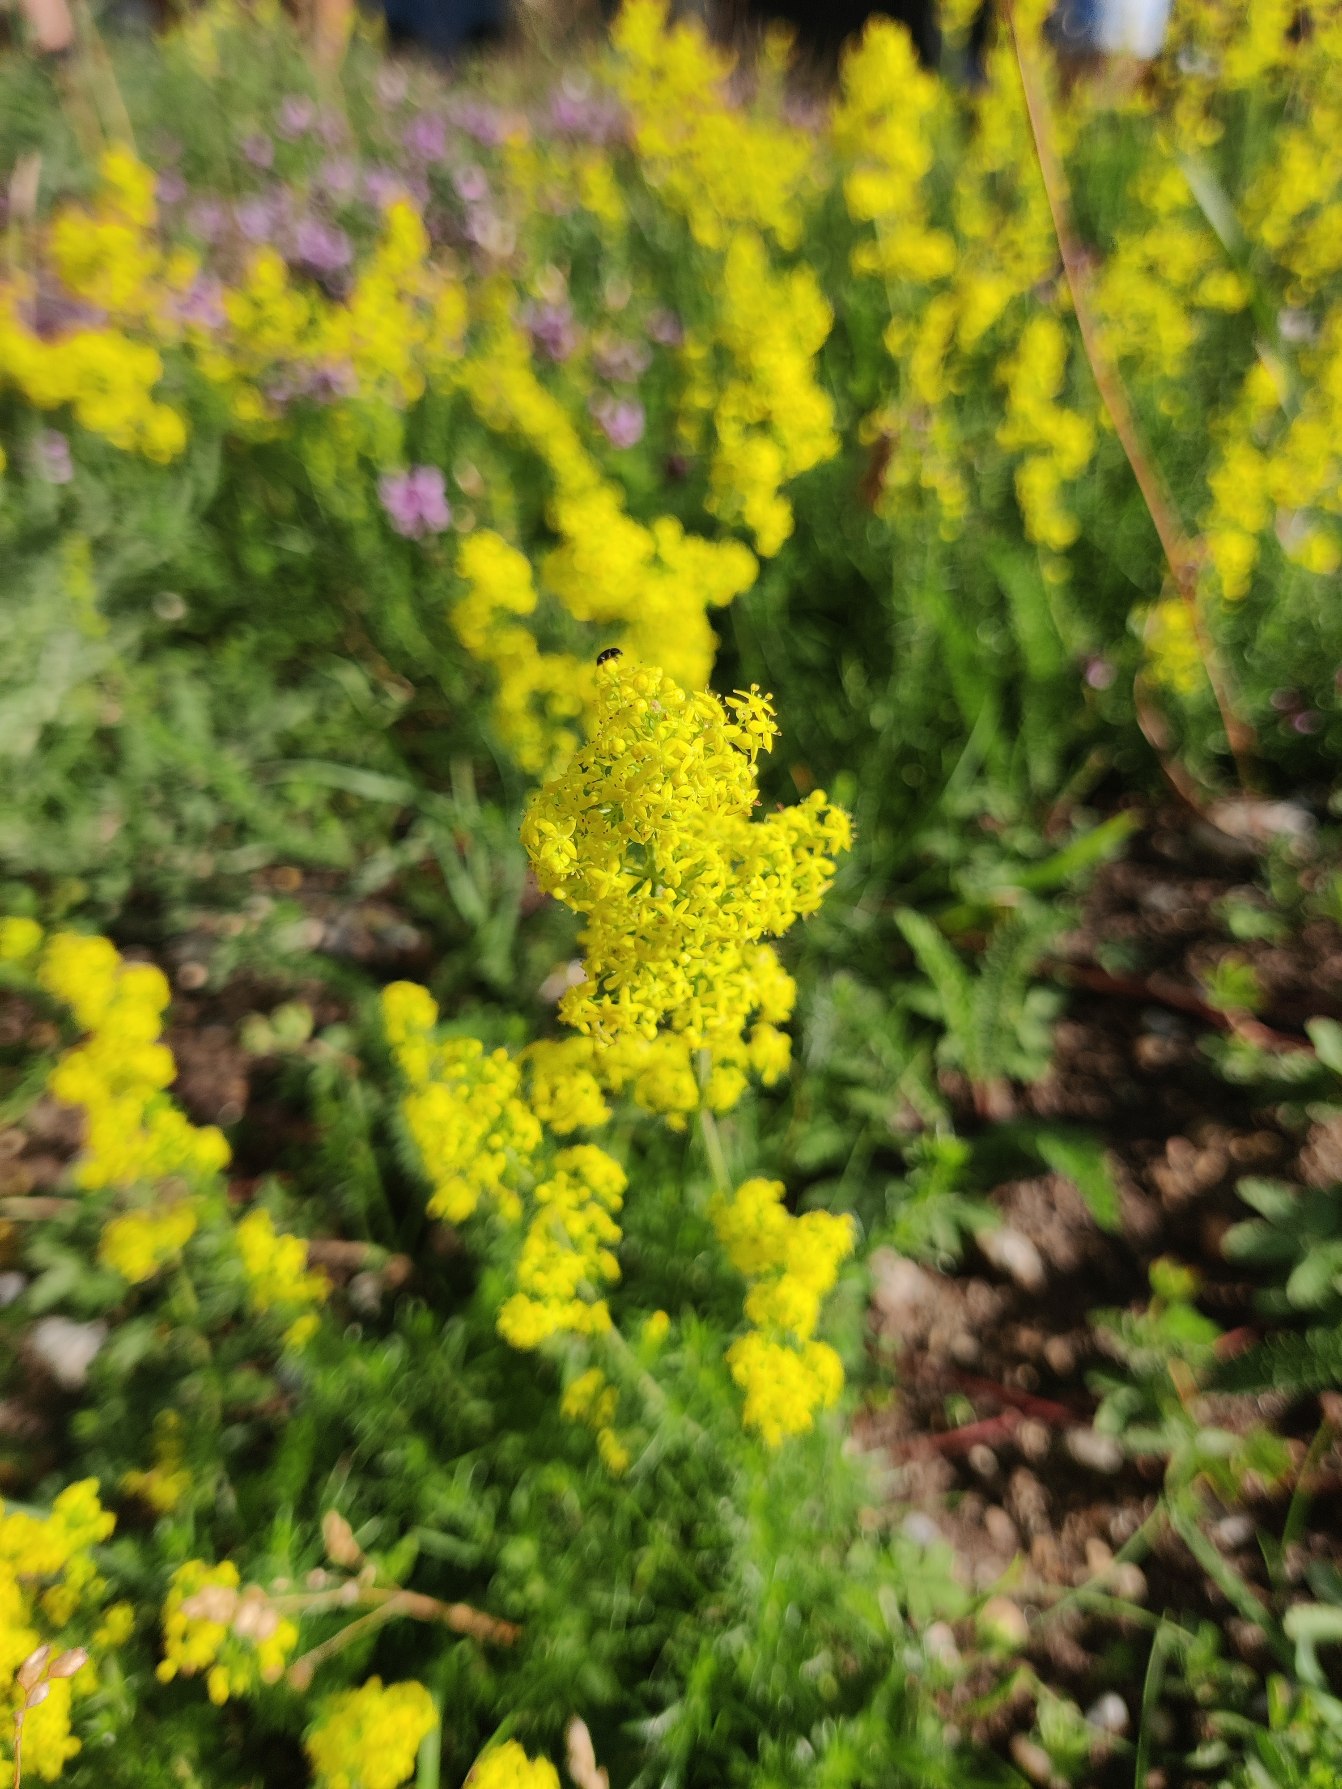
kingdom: Plantae
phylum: Tracheophyta
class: Magnoliopsida
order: Gentianales
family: Rubiaceae
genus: Galium
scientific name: Galium verum
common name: Gul snerre
